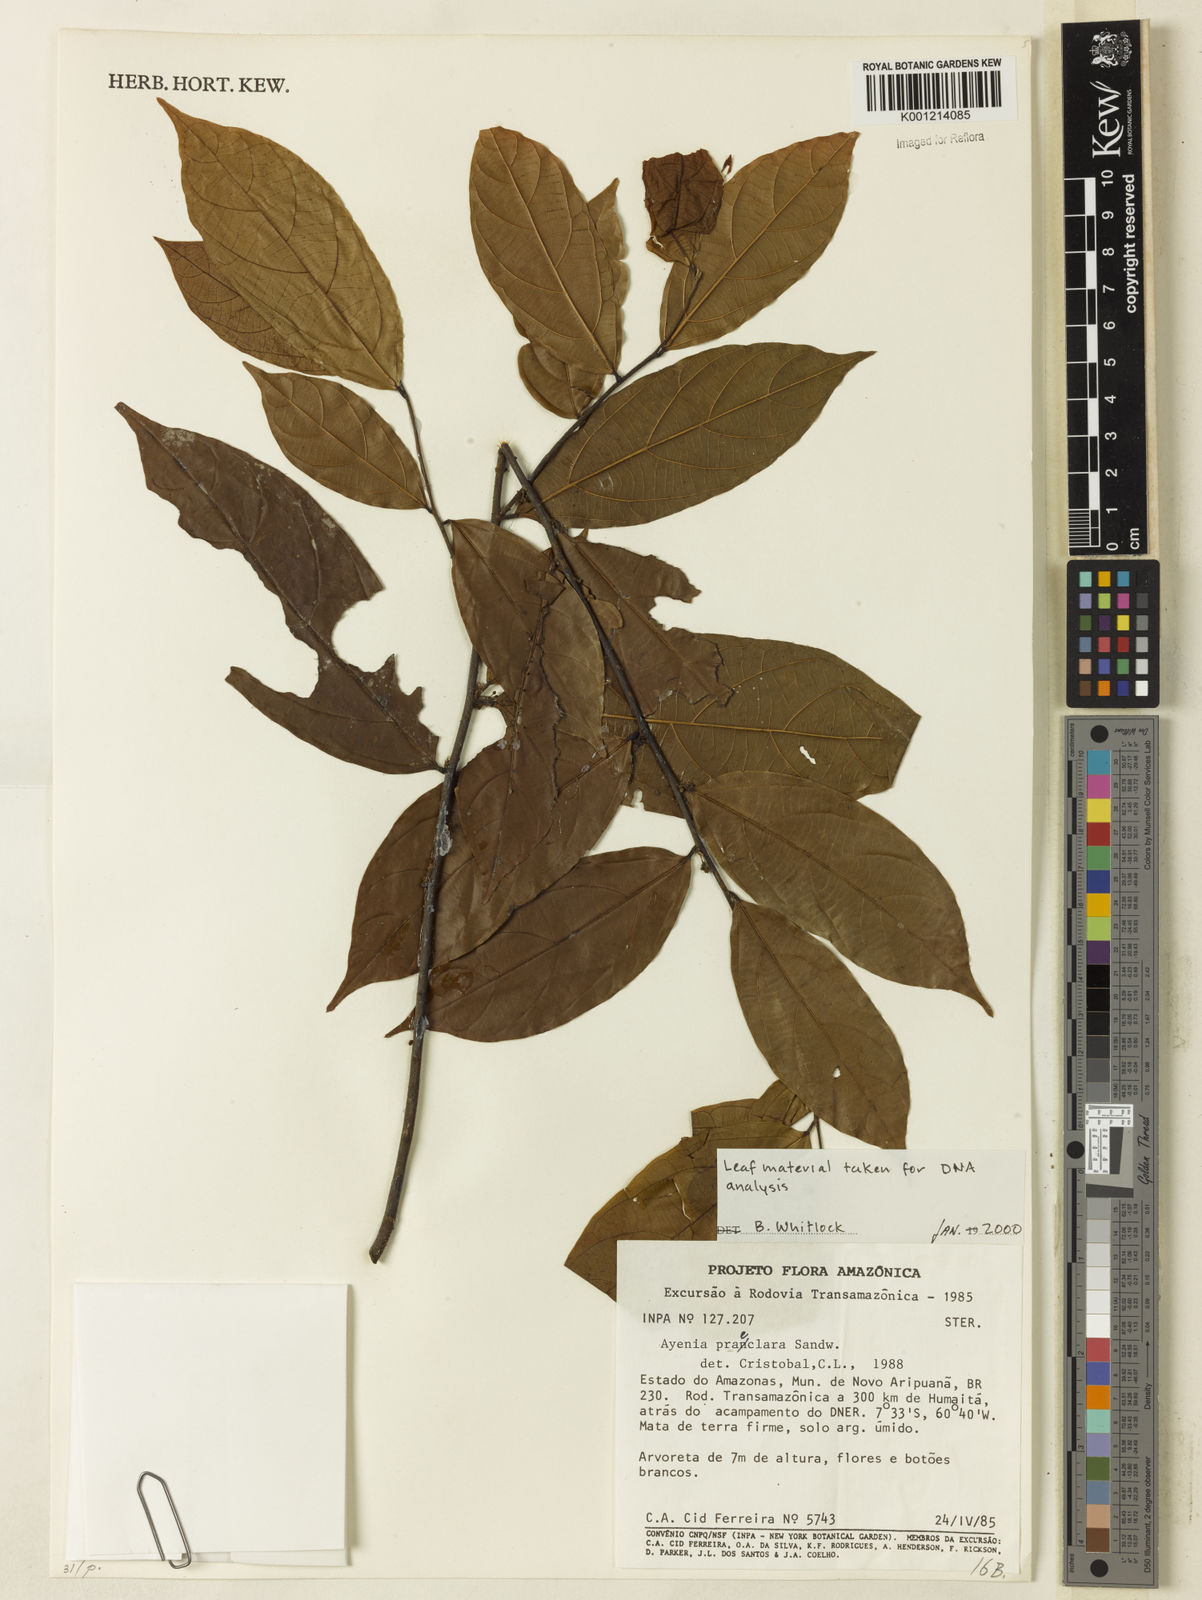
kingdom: Plantae
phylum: Tracheophyta
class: Magnoliopsida
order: Malvales
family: Malvaceae
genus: Ayenia
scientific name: Ayenia praeclara
